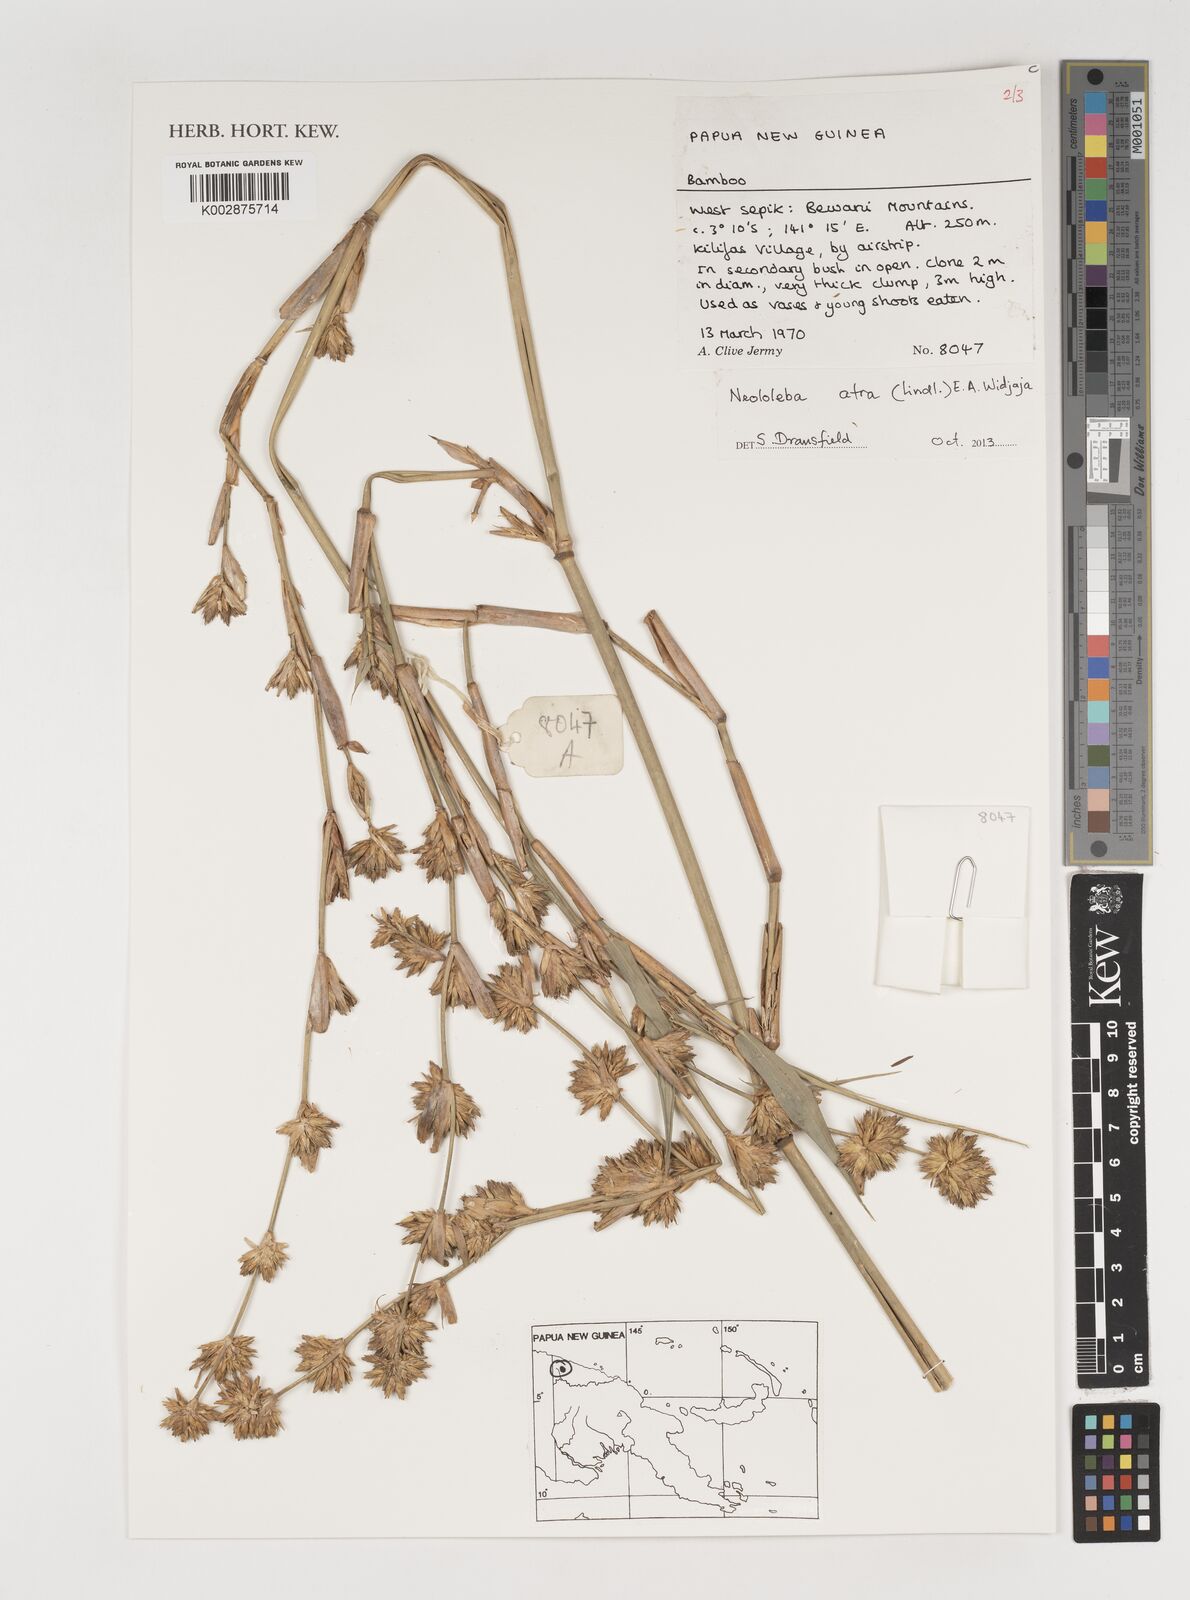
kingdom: Plantae
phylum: Tracheophyta
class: Liliopsida
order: Poales
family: Poaceae
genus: Neololeba
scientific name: Neololeba atra
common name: Cape bamboo
